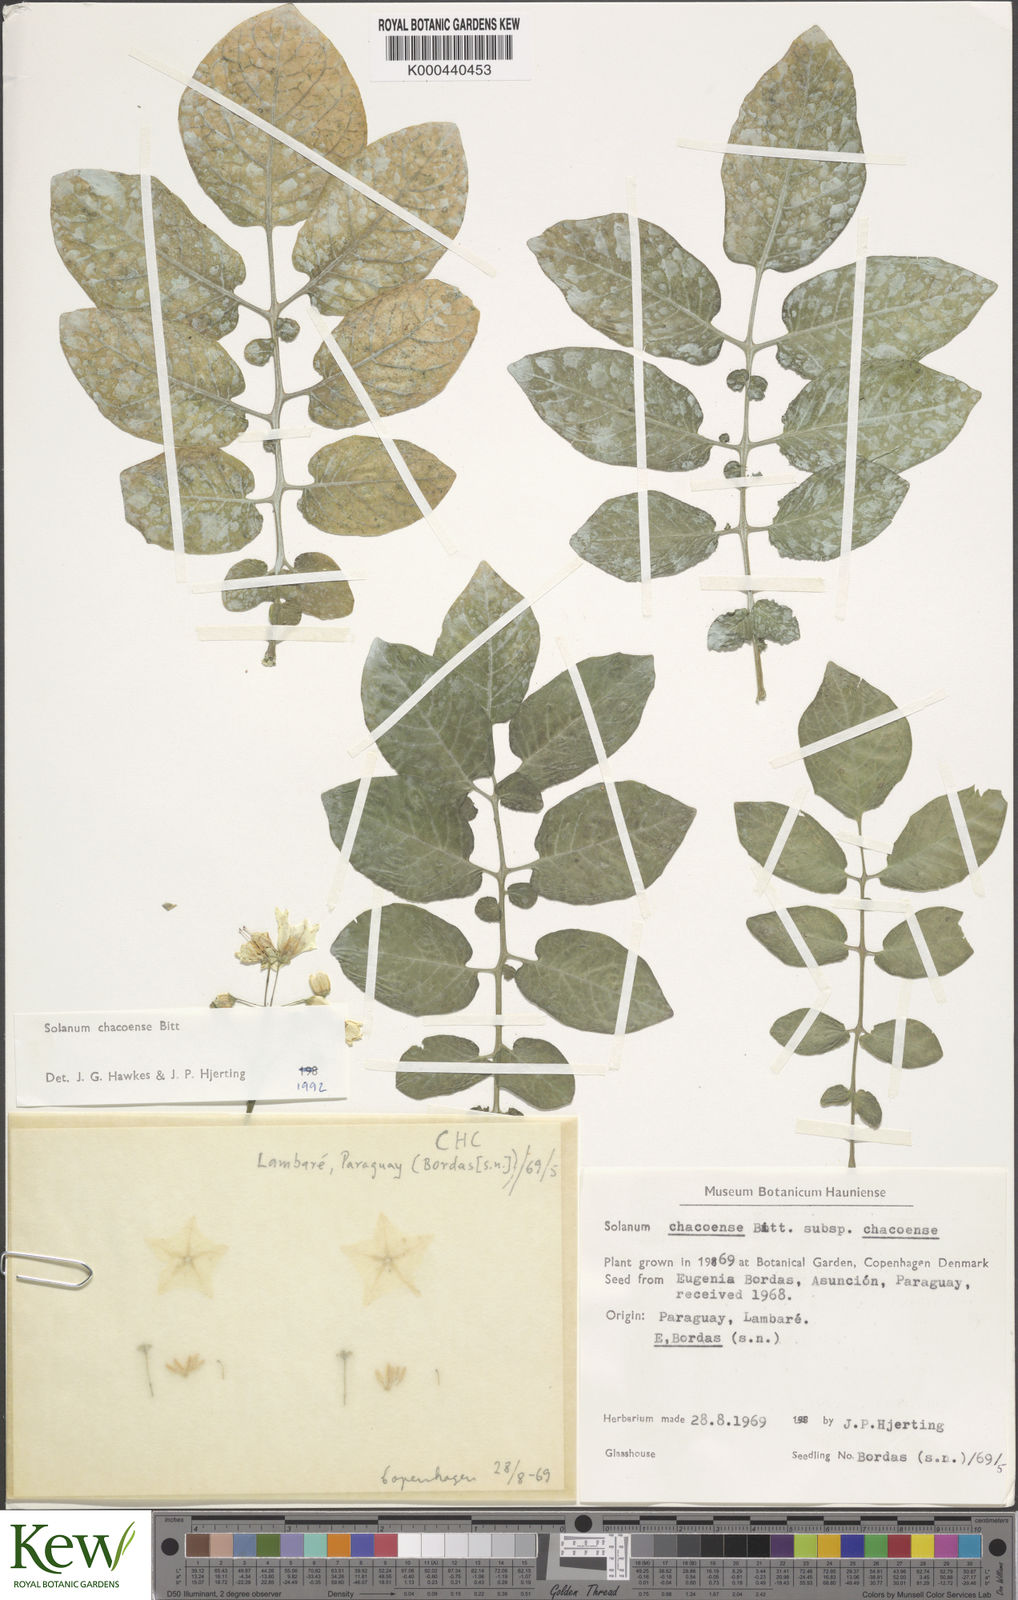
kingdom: Plantae
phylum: Tracheophyta
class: Magnoliopsida
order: Solanales
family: Solanaceae
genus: Solanum
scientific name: Solanum chacoense
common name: Chaco potato
